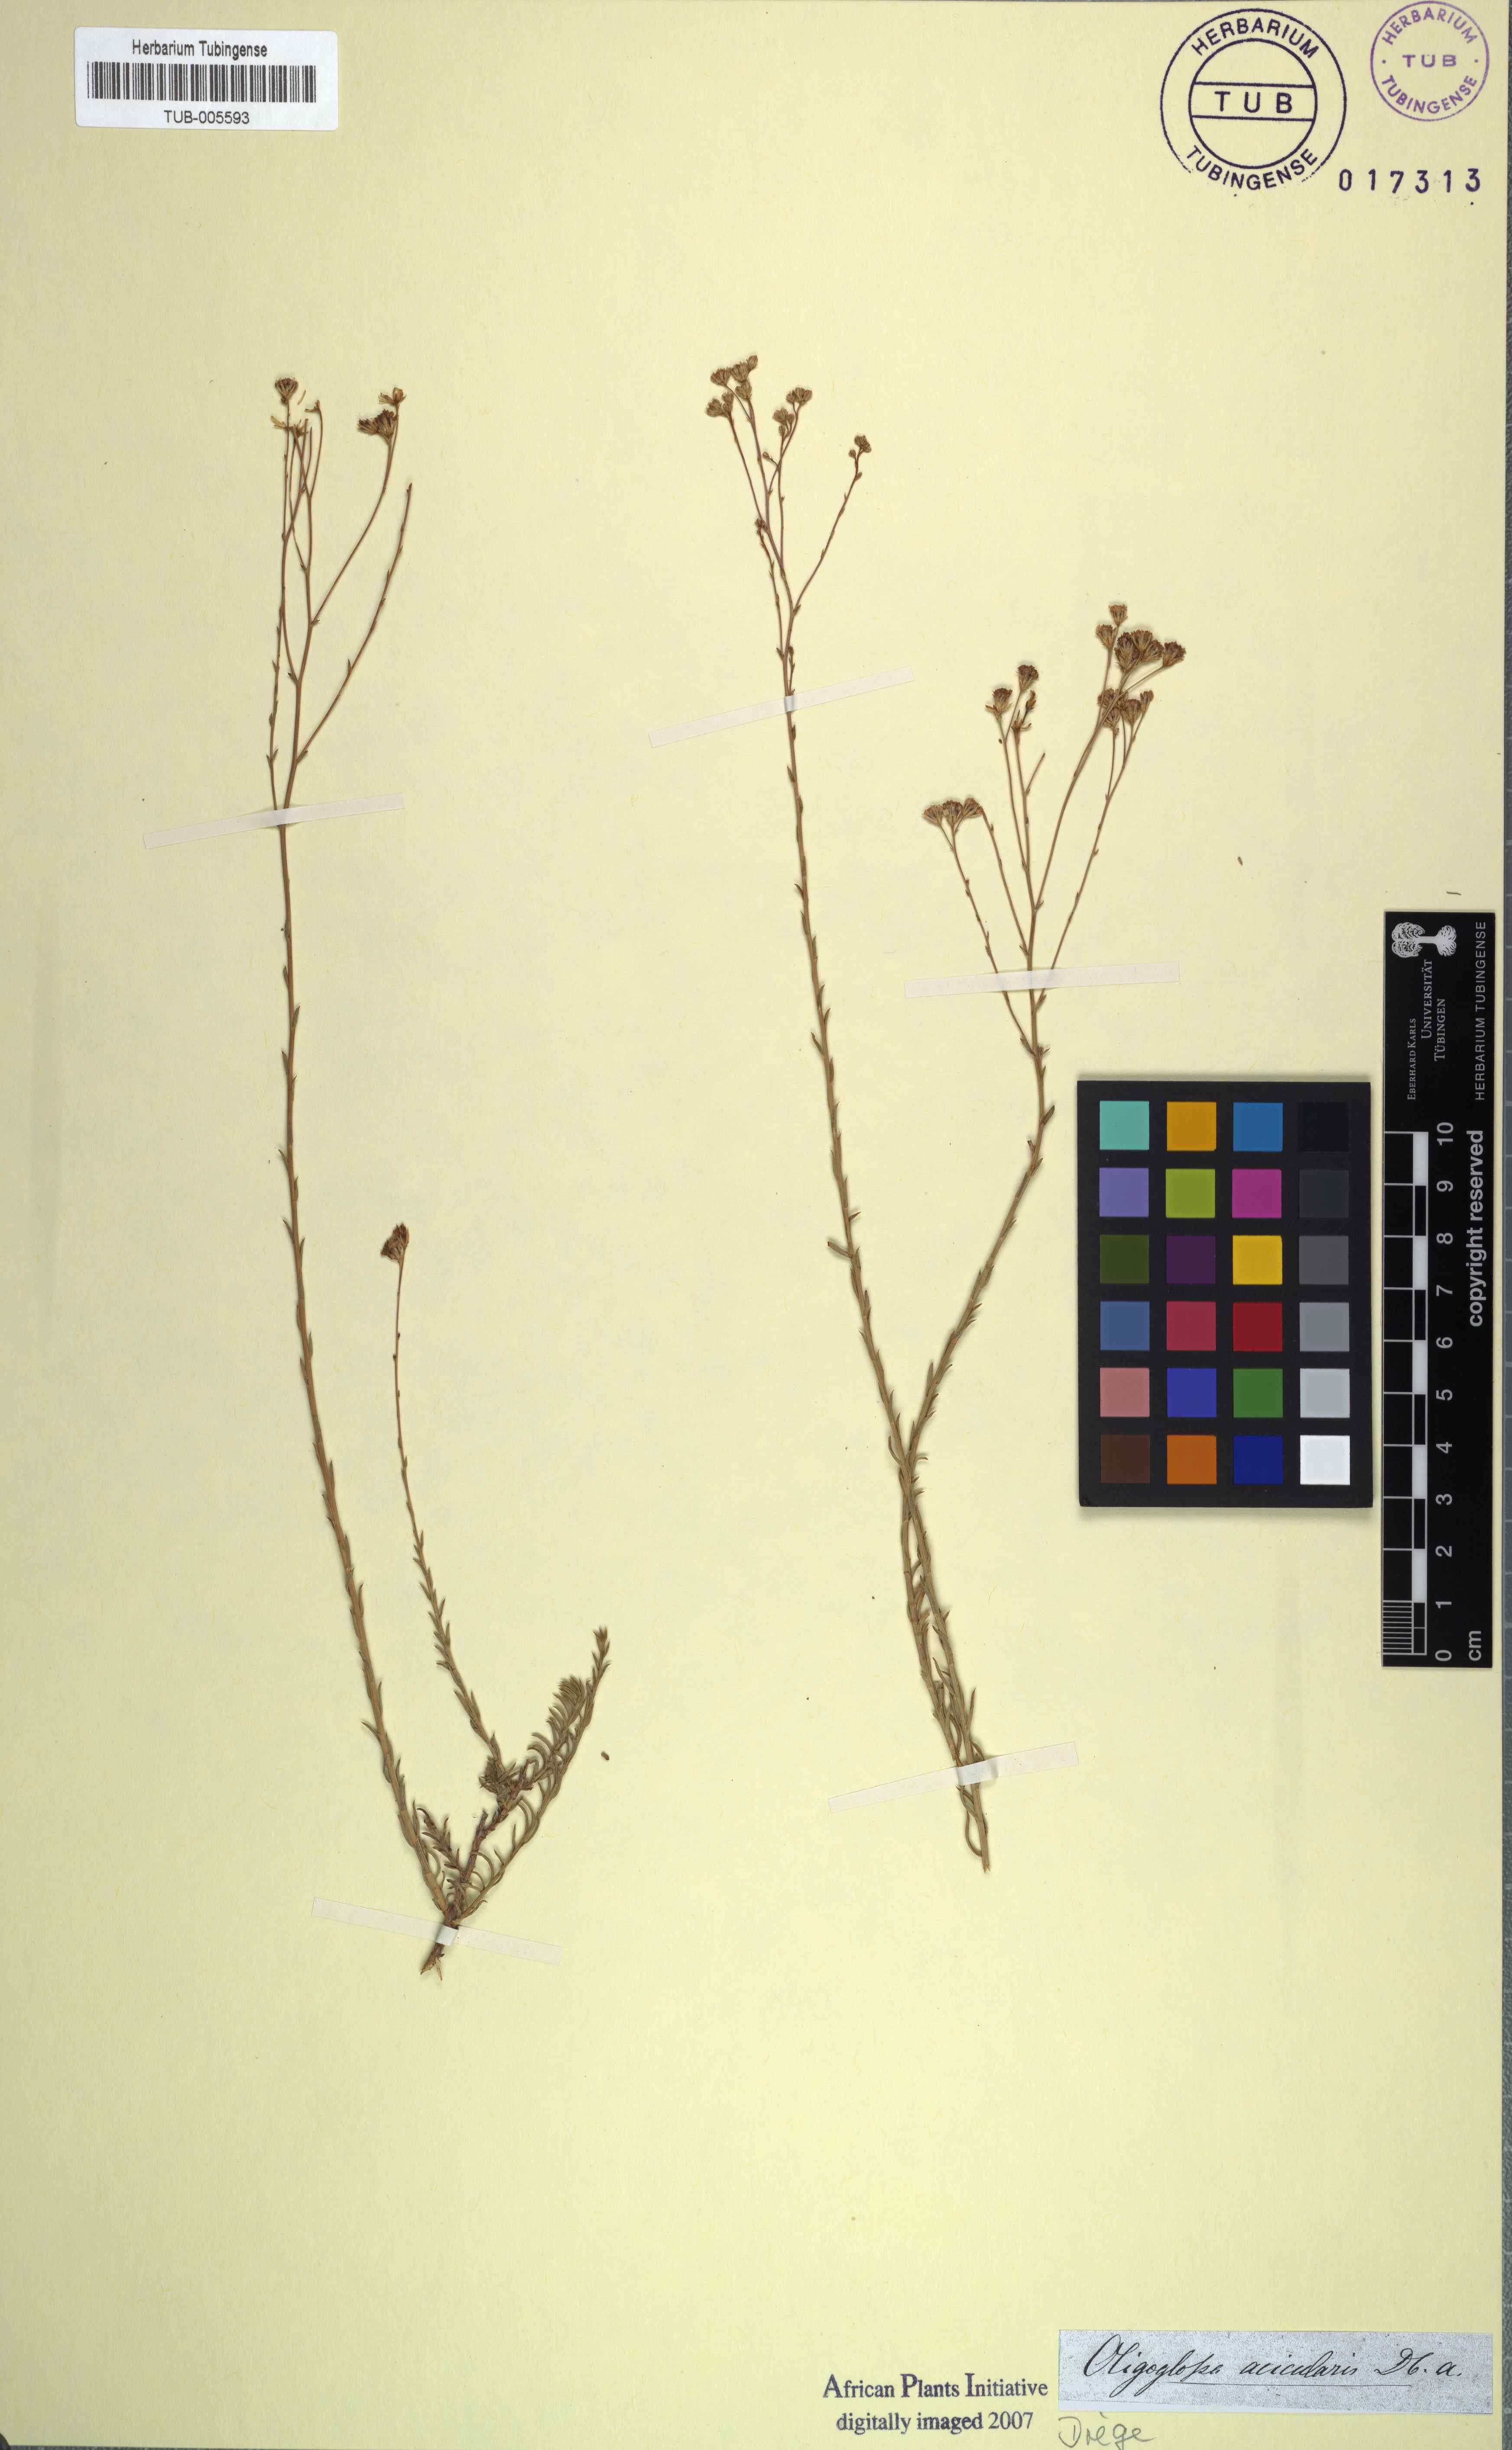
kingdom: Plantae
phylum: Tracheophyta
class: Magnoliopsida
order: Asterales
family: Asteraceae
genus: Phymaspermum
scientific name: Phymaspermum aciculare
